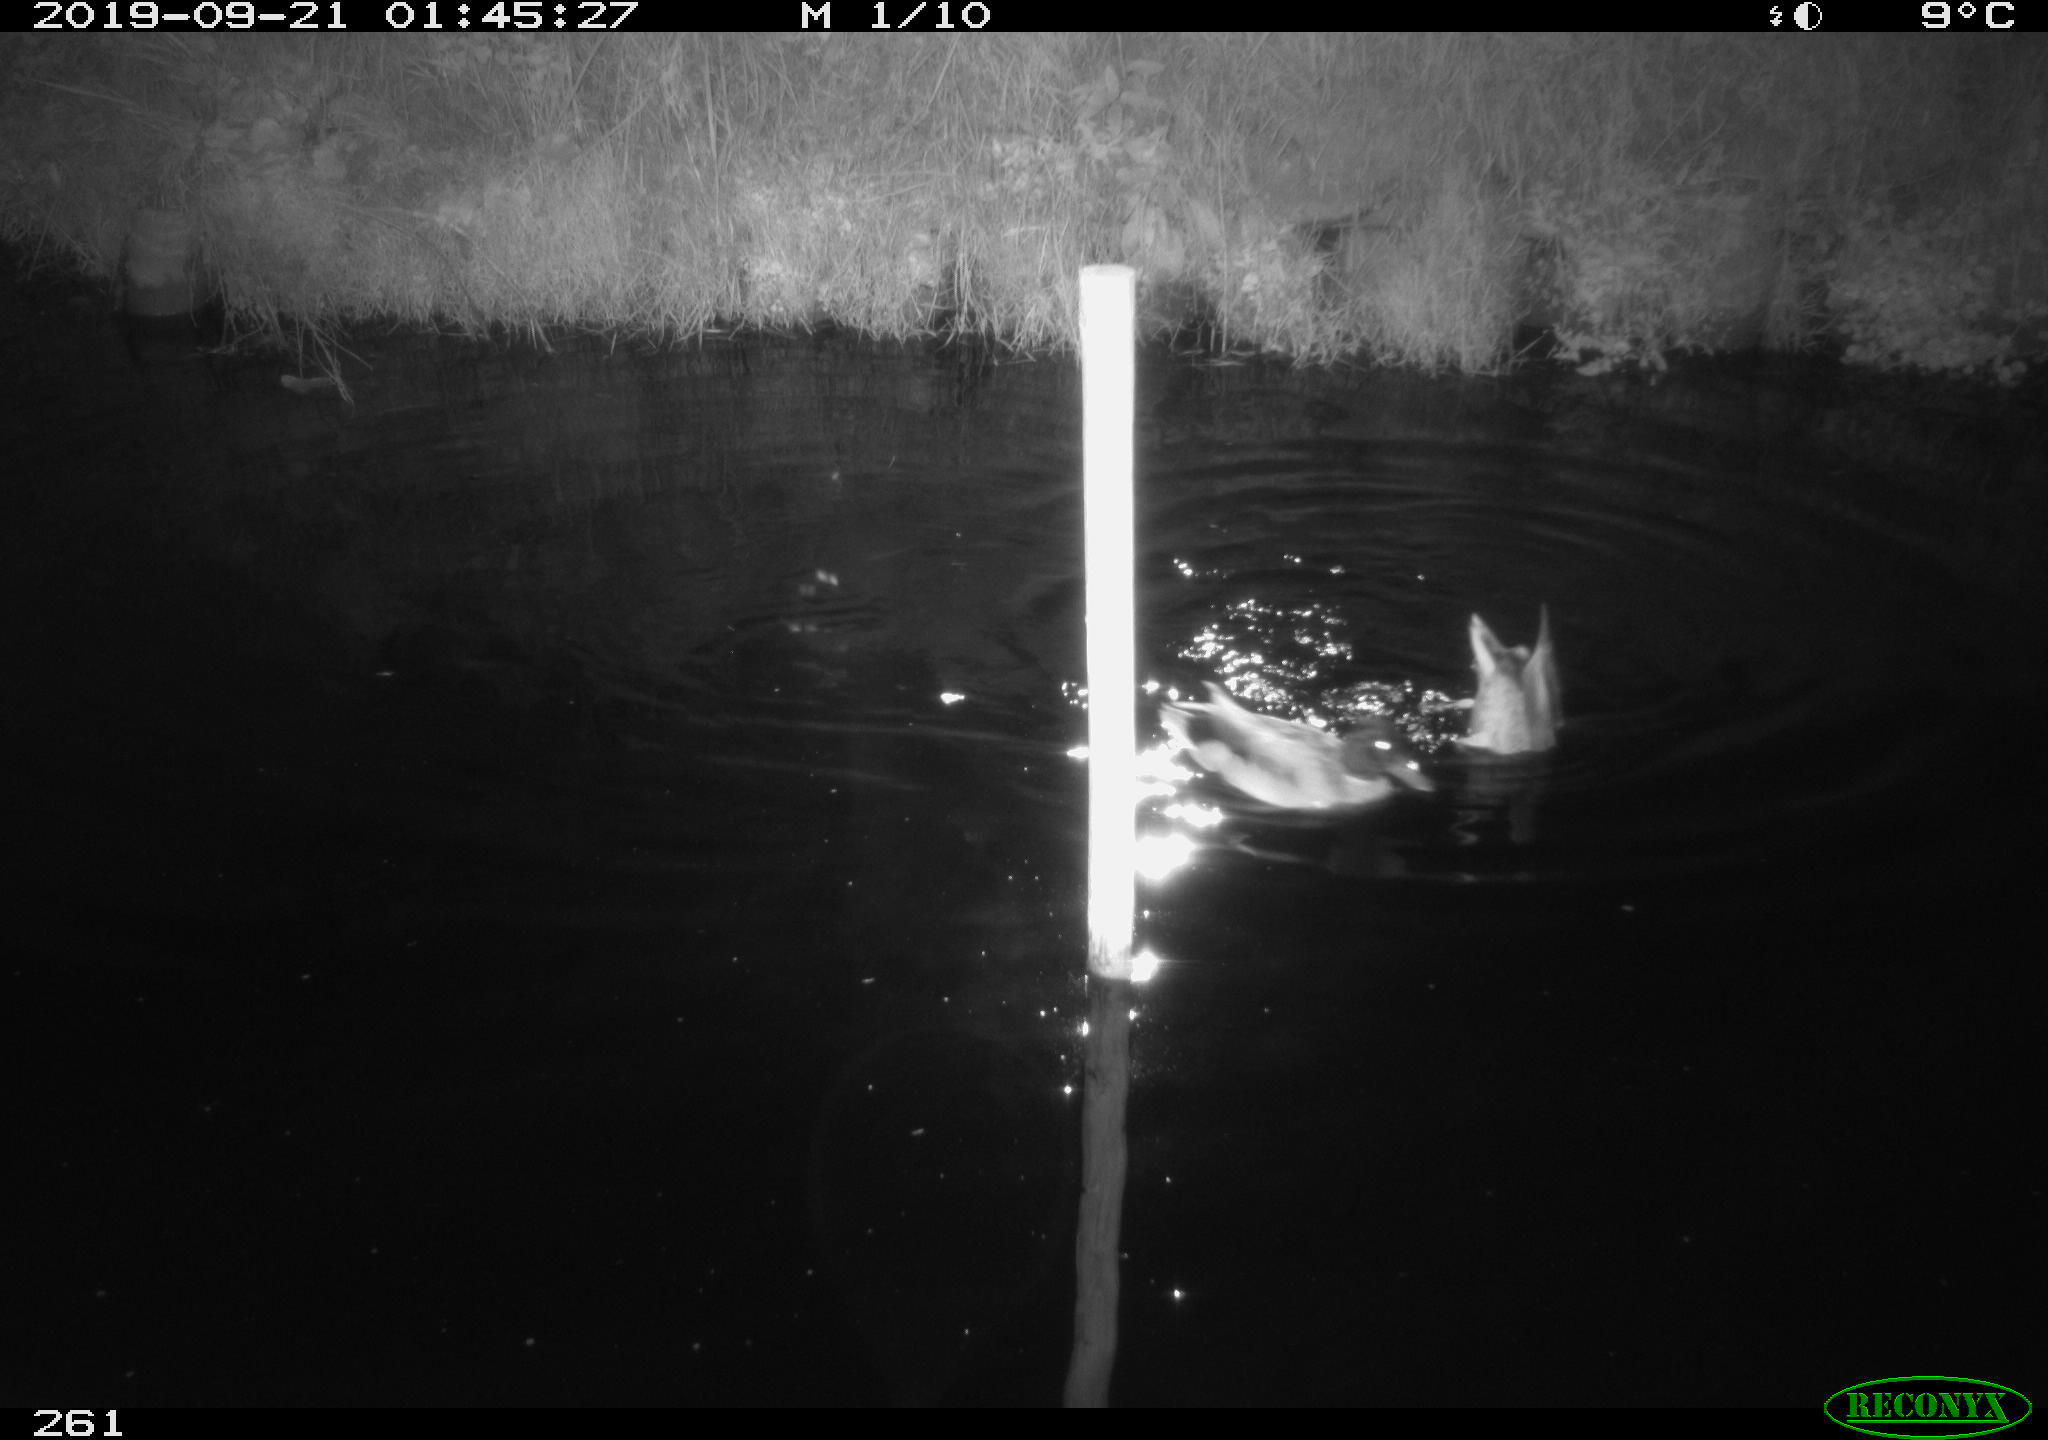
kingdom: Animalia
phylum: Chordata
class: Aves
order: Anseriformes
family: Anatidae
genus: Anas
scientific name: Anas platyrhynchos
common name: Mallard
